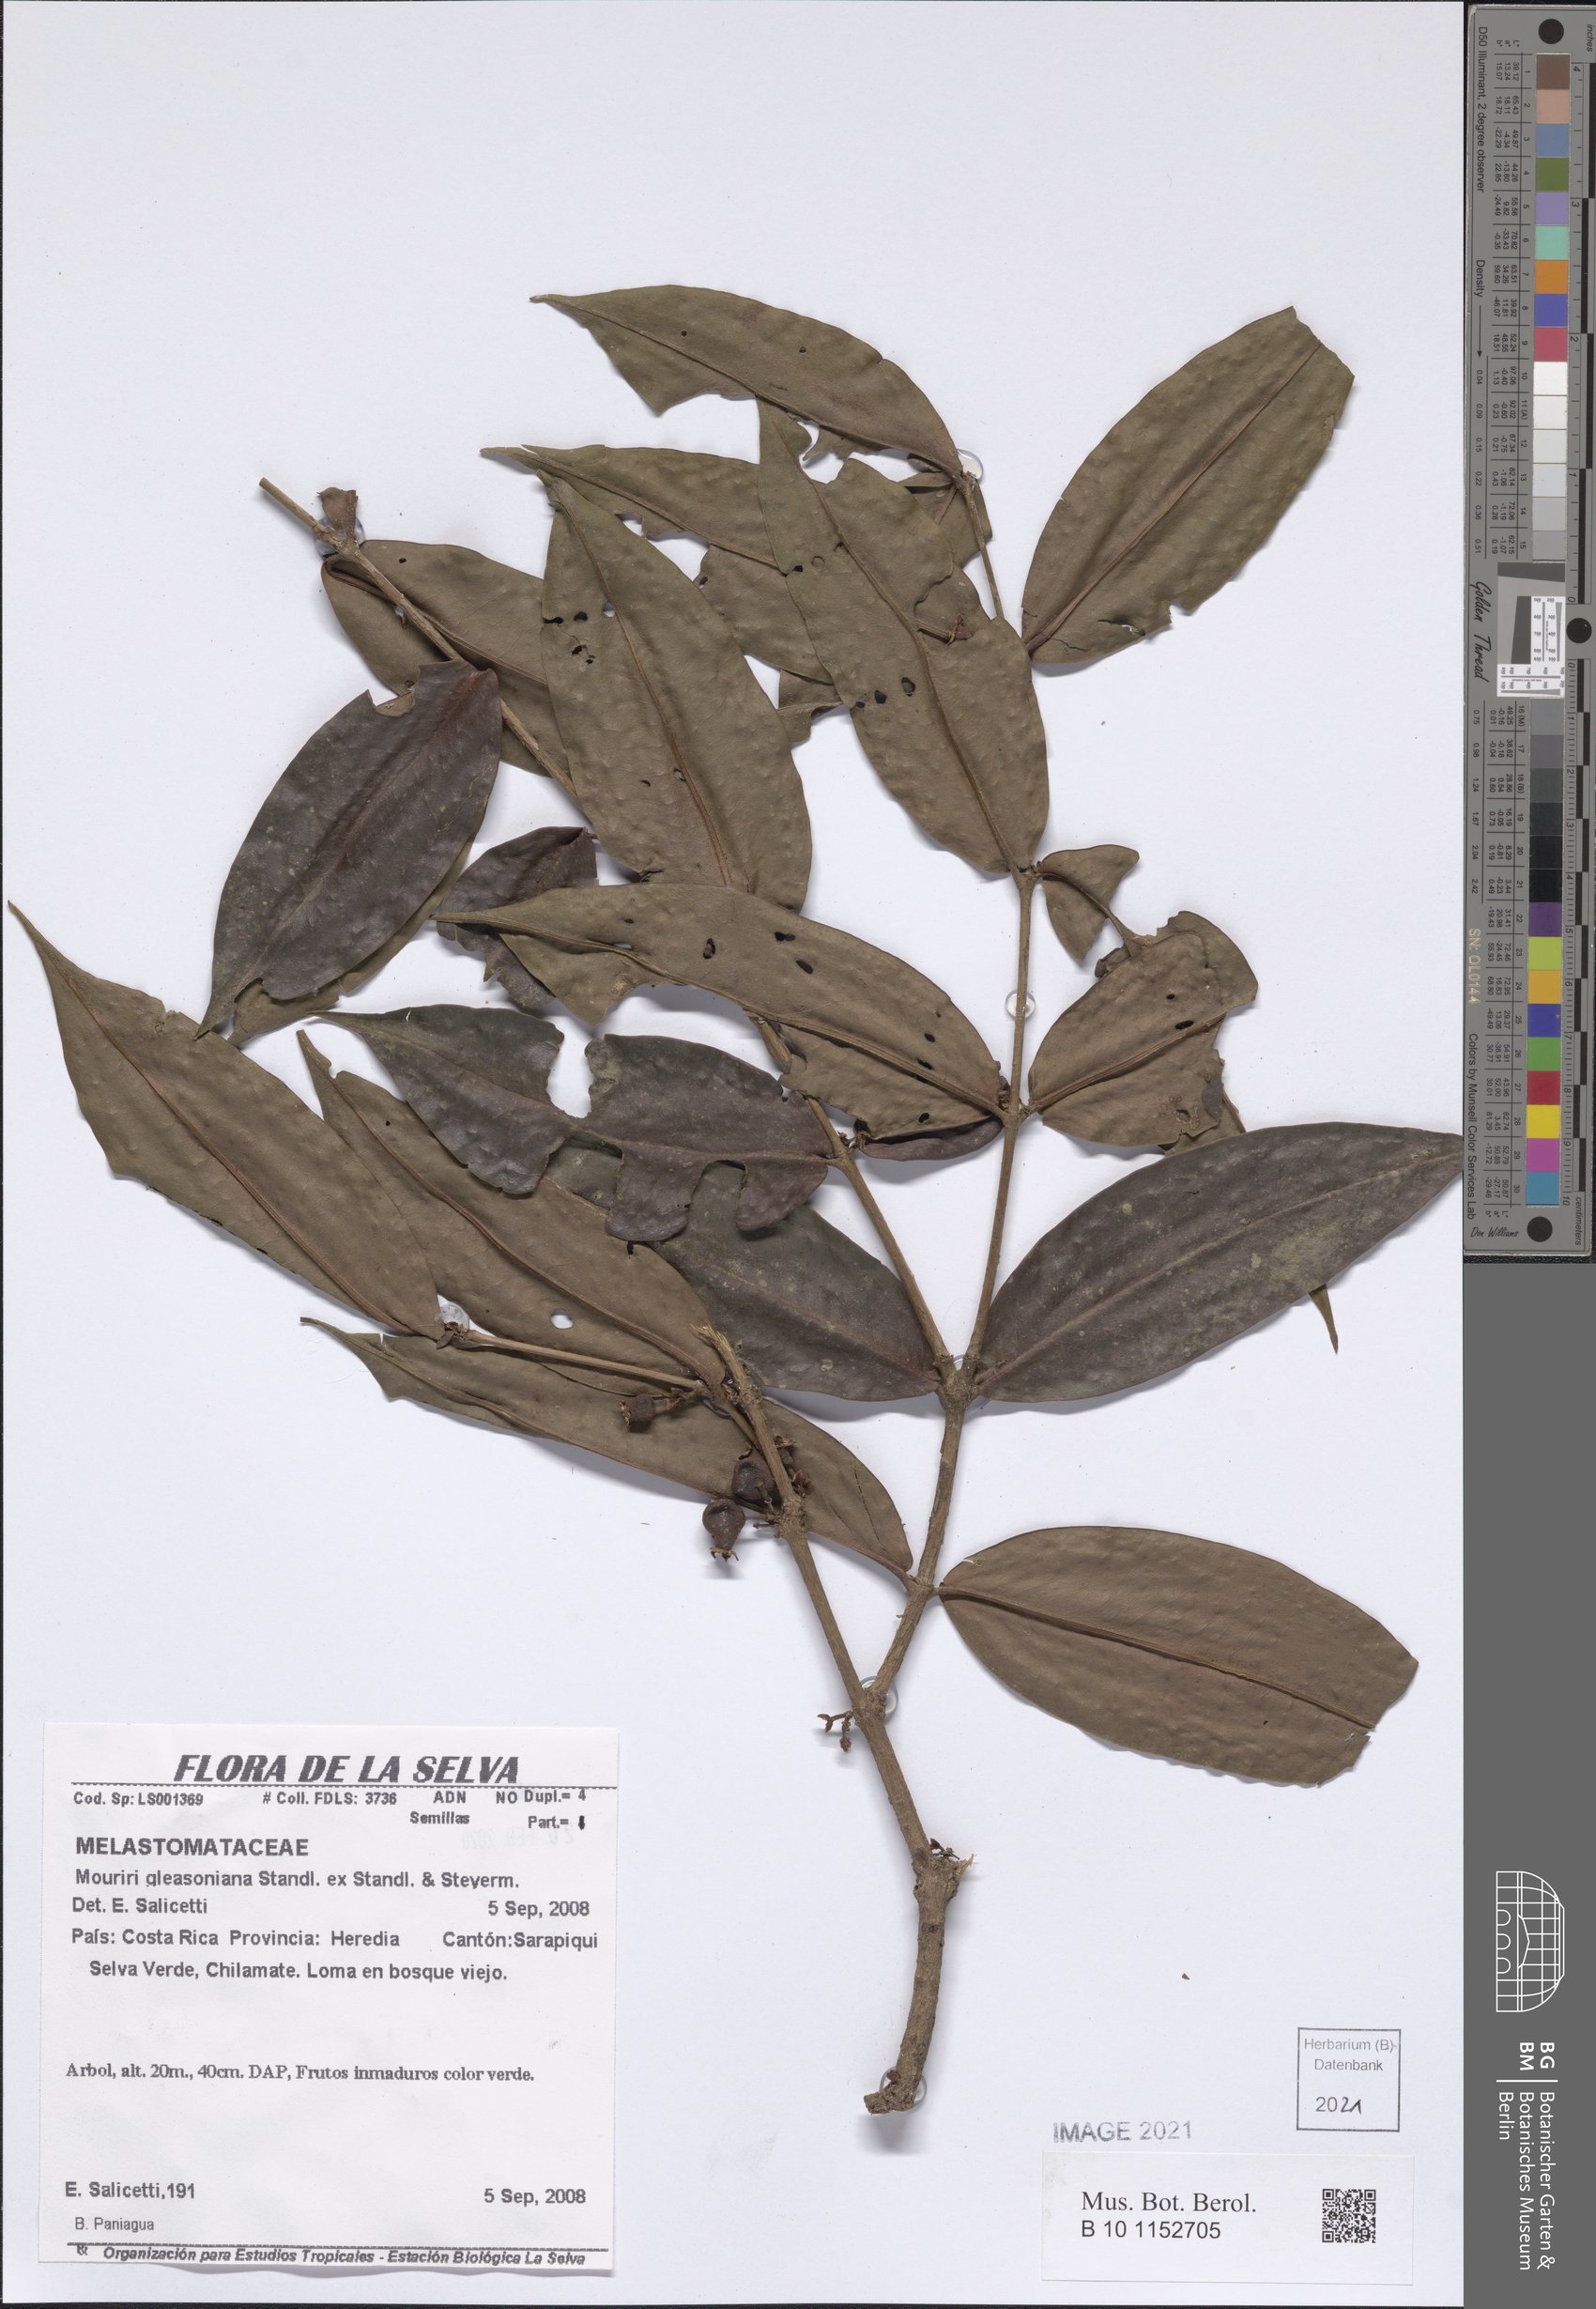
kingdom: Plantae
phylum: Tracheophyta
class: Magnoliopsida
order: Myrtales
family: Melastomataceae
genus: Mouriri
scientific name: Mouriri gleasoniana
